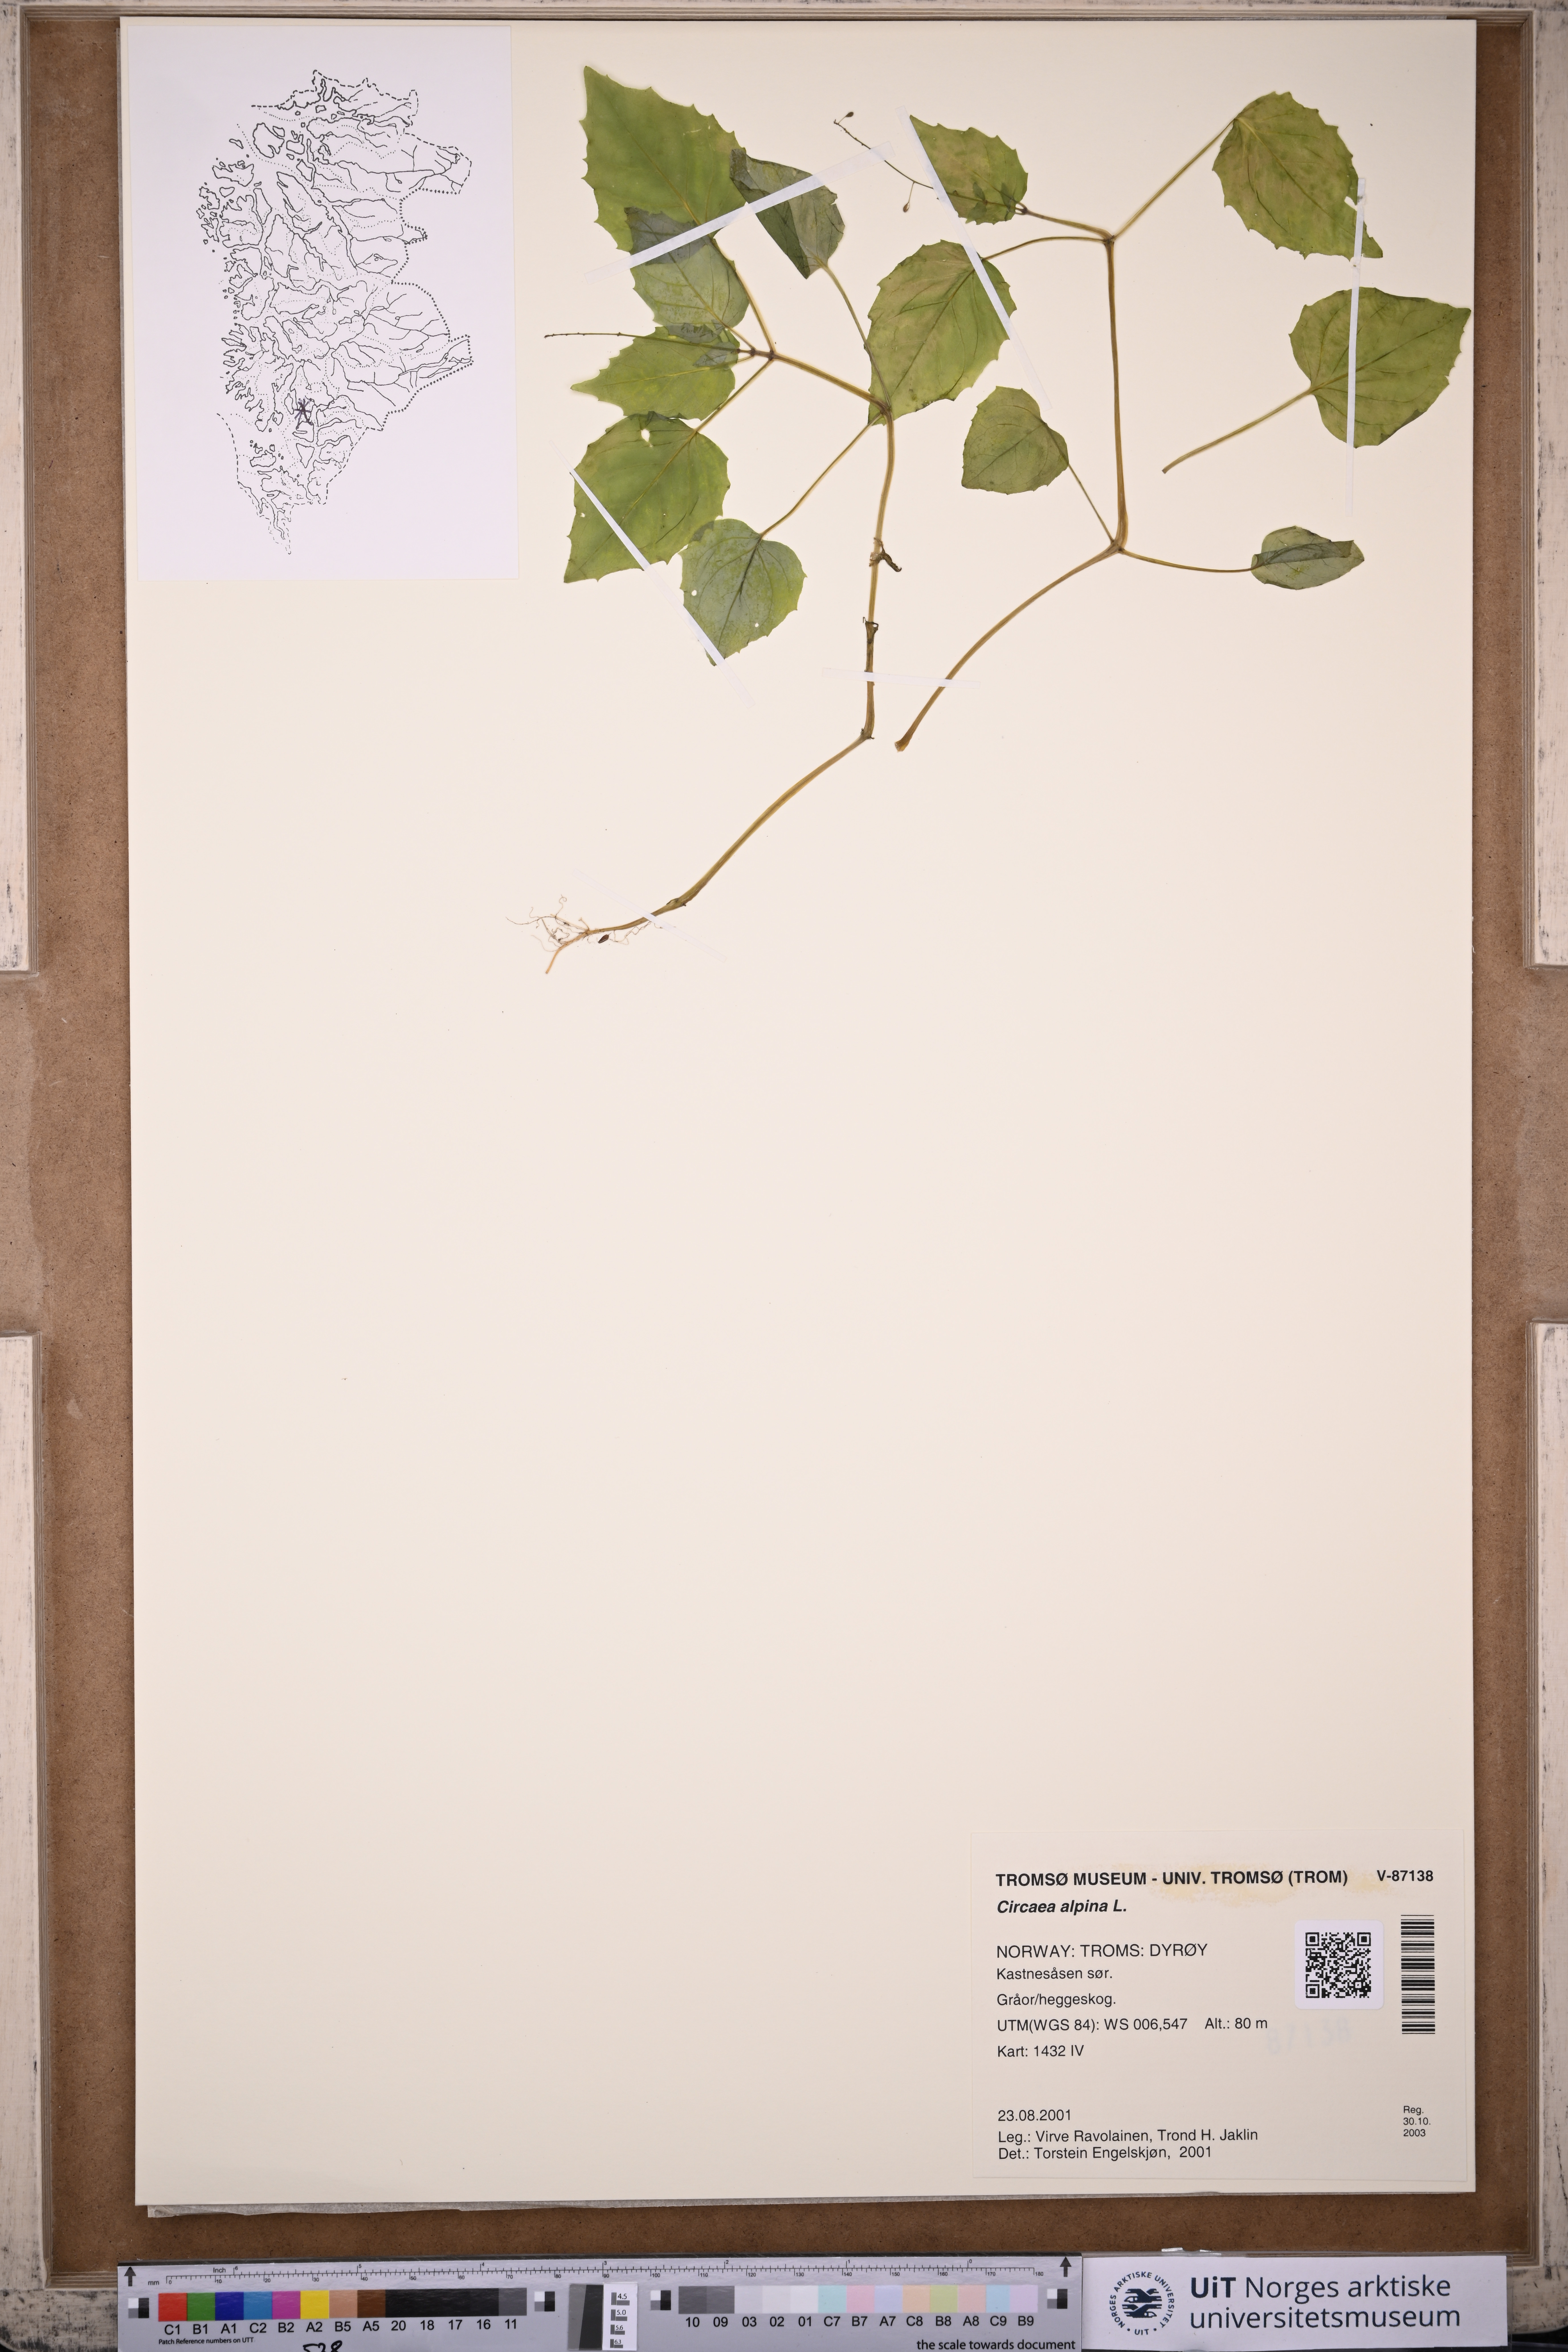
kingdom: Plantae
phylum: Tracheophyta
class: Magnoliopsida
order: Myrtales
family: Onagraceae
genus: Circaea
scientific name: Circaea alpina
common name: Alpine enchanter's-nightshade
